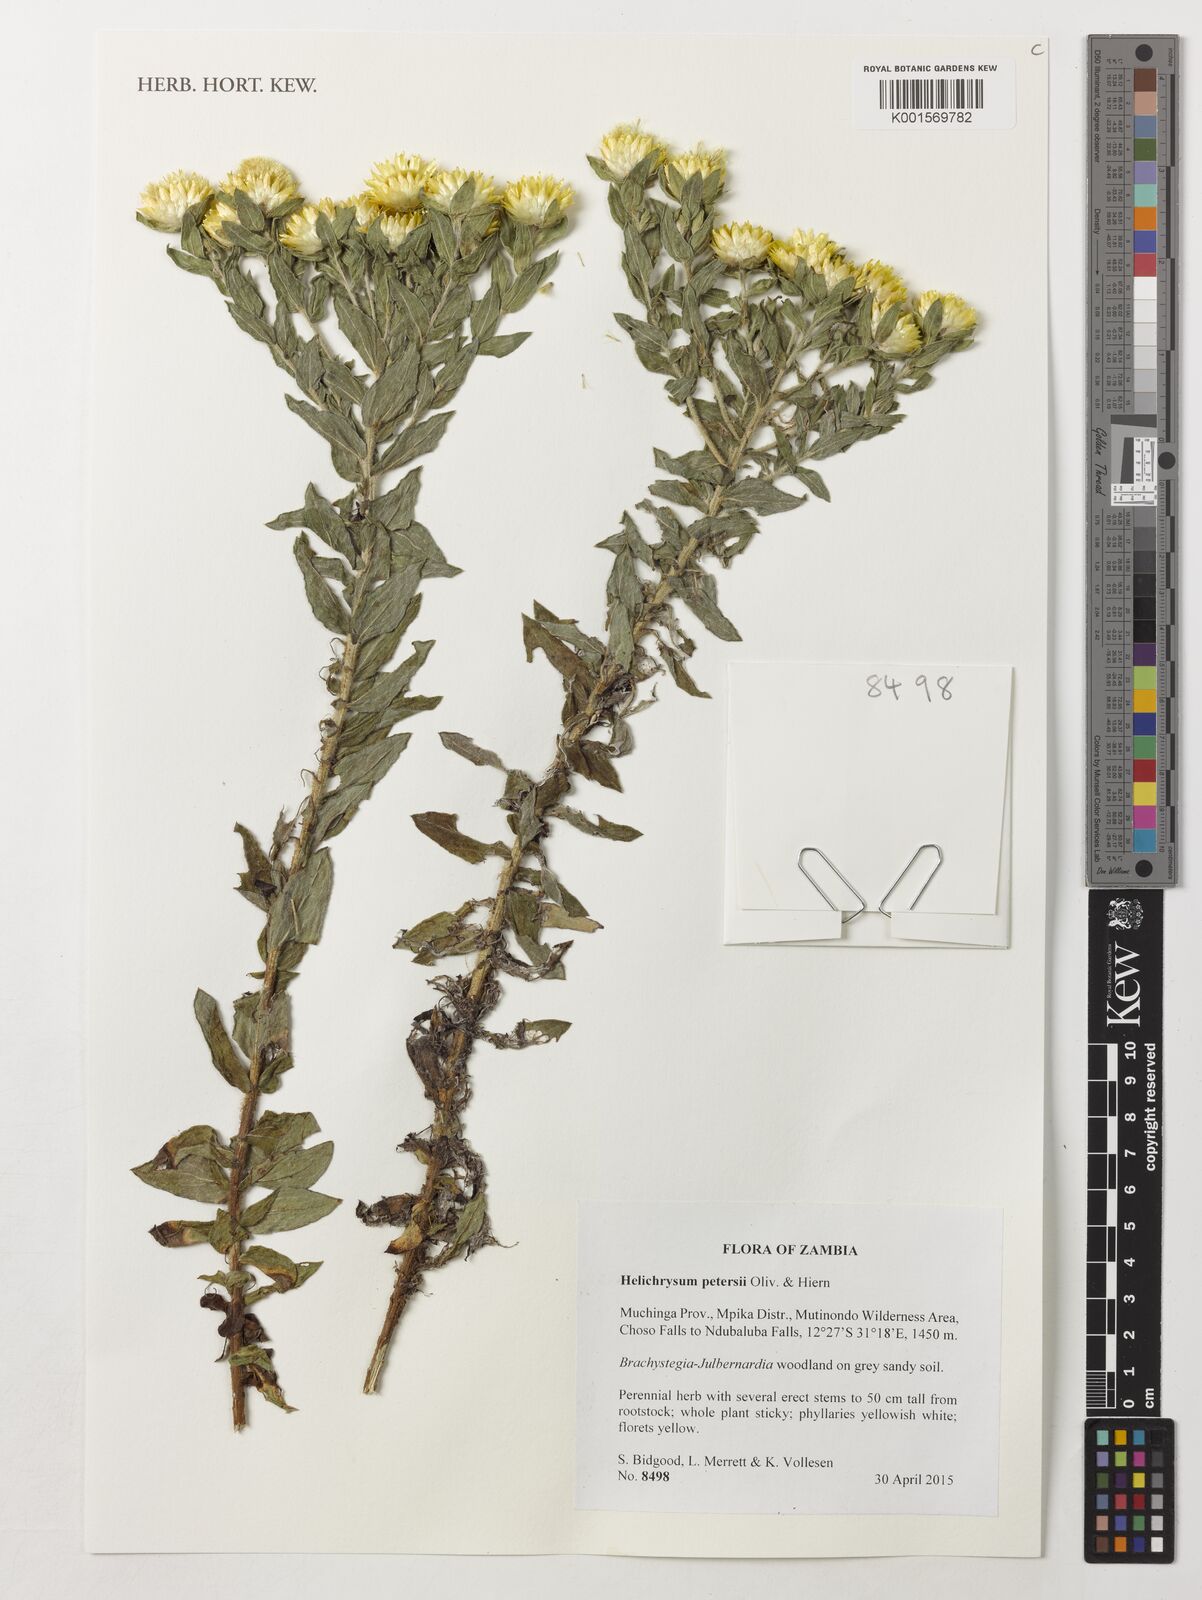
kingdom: Plantae
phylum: Tracheophyta
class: Magnoliopsida
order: Asterales
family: Asteraceae
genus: Helichrysum
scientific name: Helichrysum kirkii
